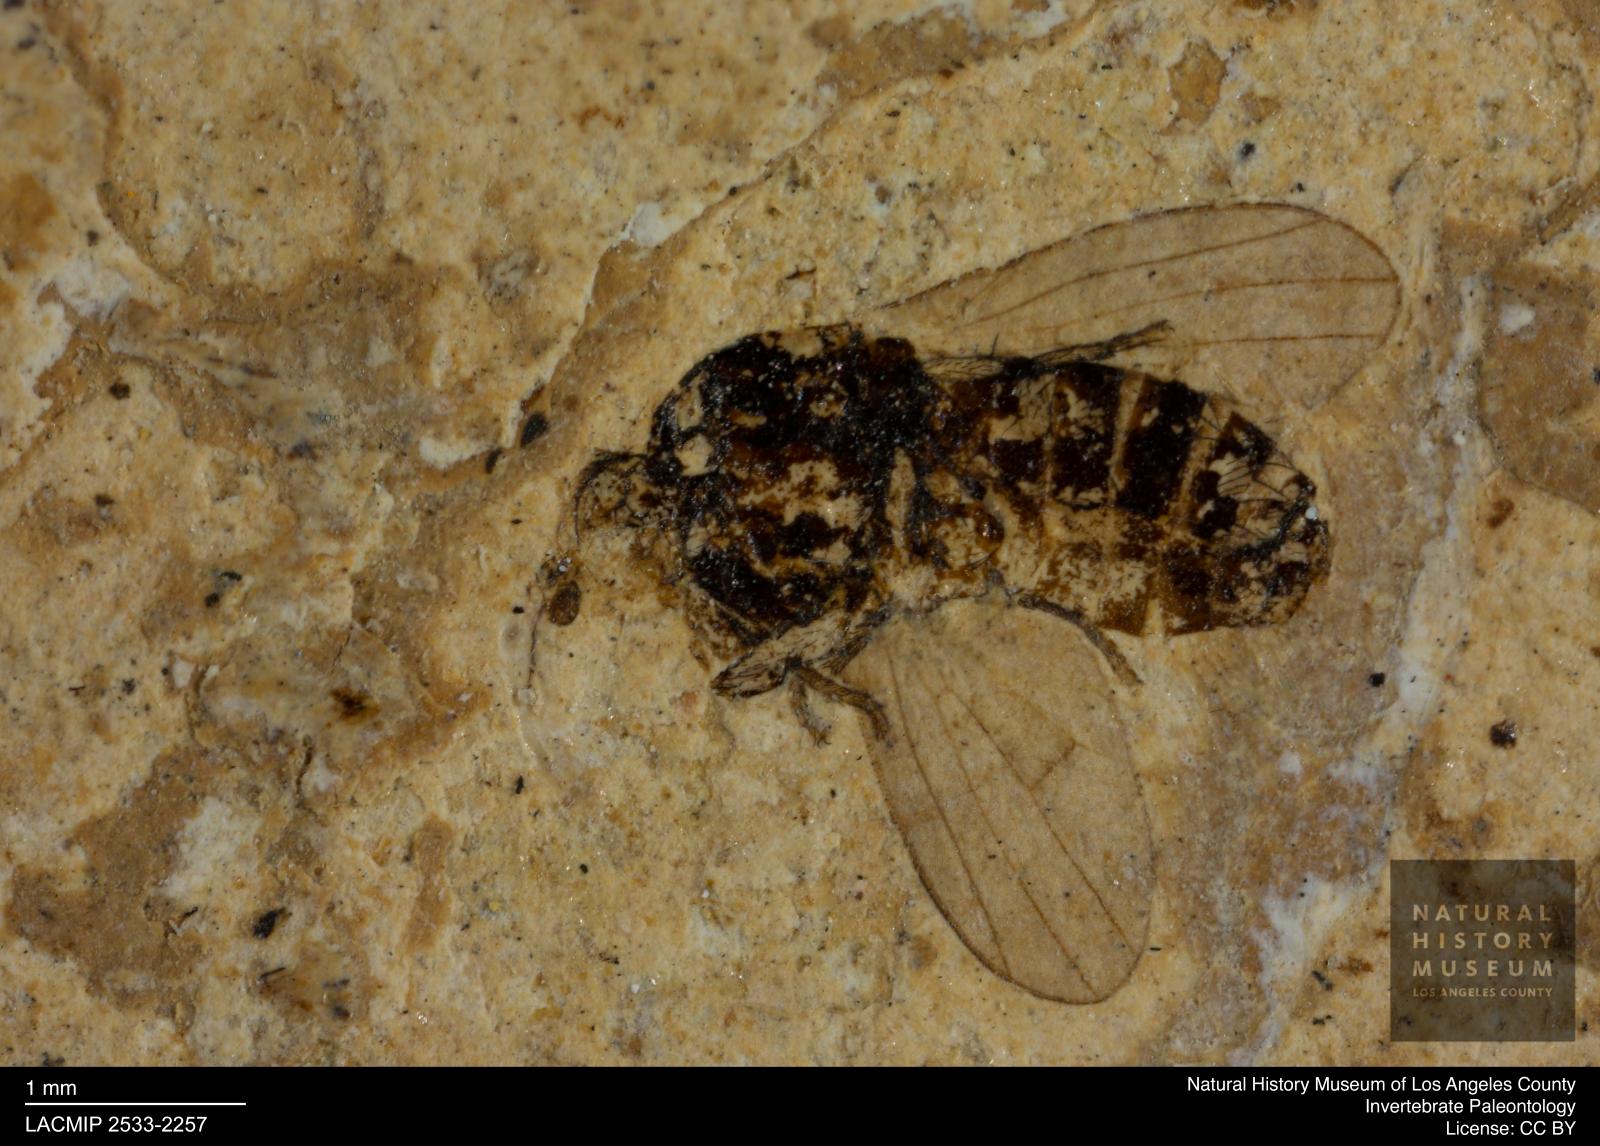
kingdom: Animalia
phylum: Arthropoda
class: Insecta
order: Diptera
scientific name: Diptera
